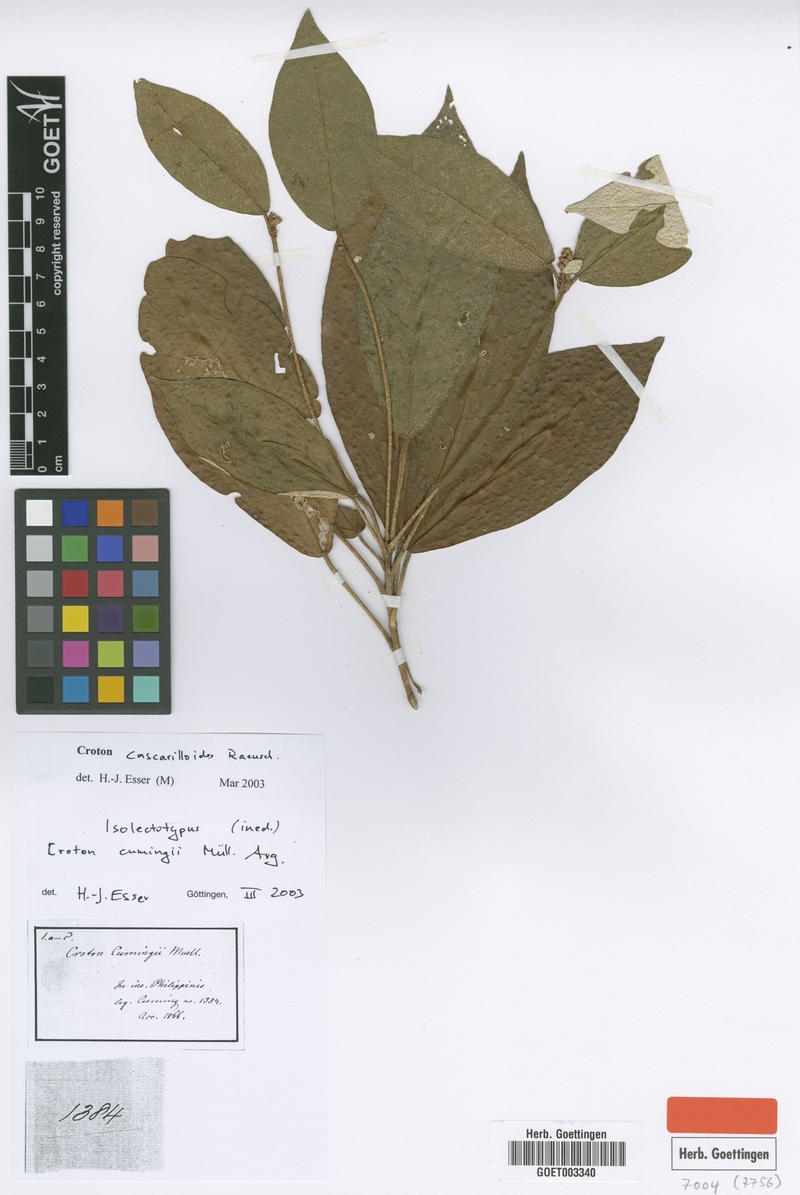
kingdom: Plantae
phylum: Tracheophyta
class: Magnoliopsida
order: Malpighiales
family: Euphorbiaceae
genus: Croton
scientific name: Croton cascarilloides
